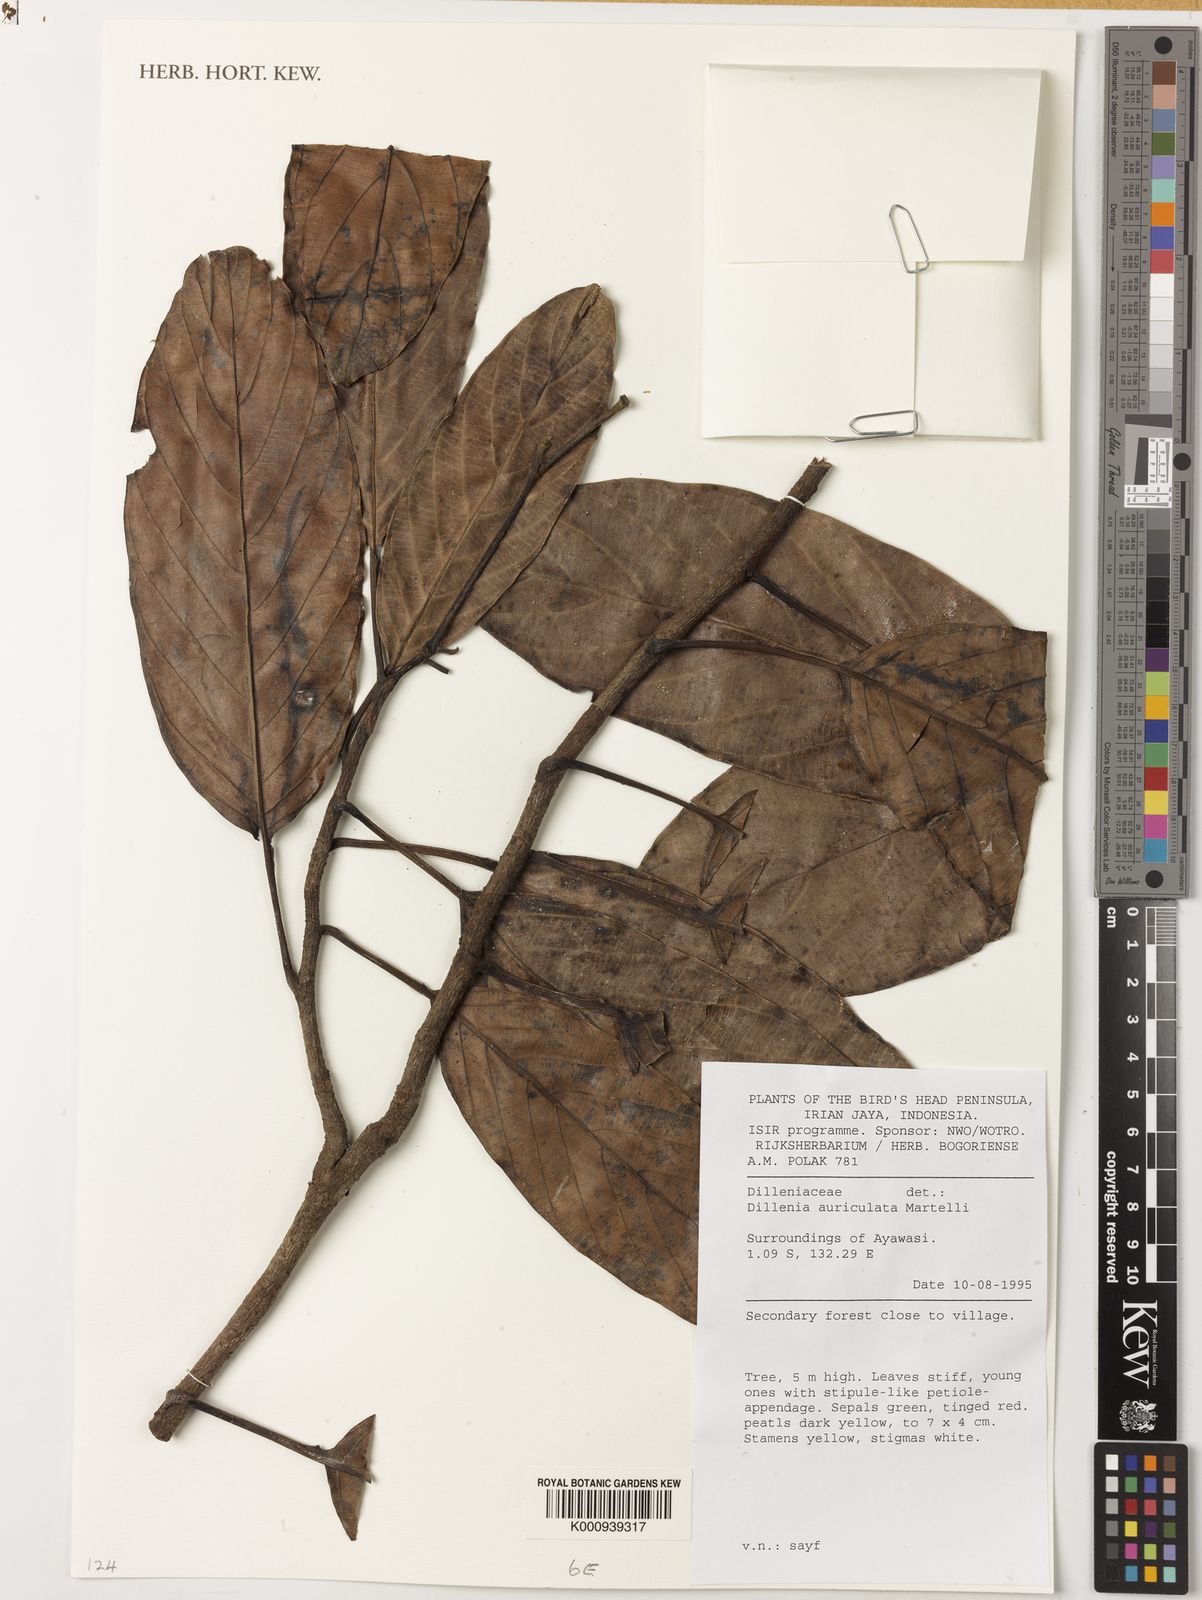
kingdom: Plantae
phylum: Tracheophyta
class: Magnoliopsida
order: Dilleniales
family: Dilleniaceae
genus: Dillenia
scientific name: Dillenia auriculata
